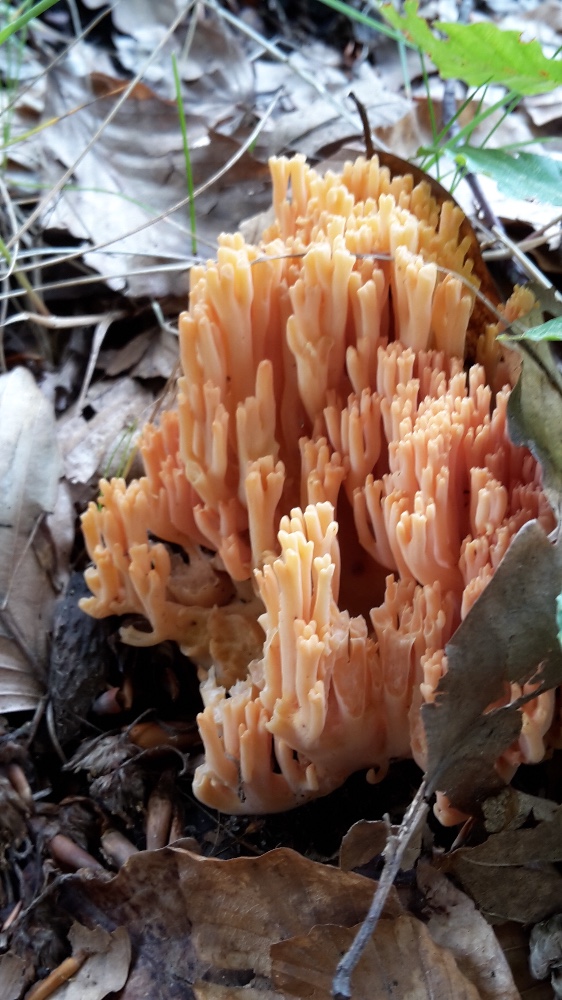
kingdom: Fungi
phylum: Basidiomycota
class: Agaricomycetes
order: Gomphales
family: Gomphaceae
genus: Ramaria
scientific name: Ramaria fagetorum
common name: abrikos-koralsvamp
